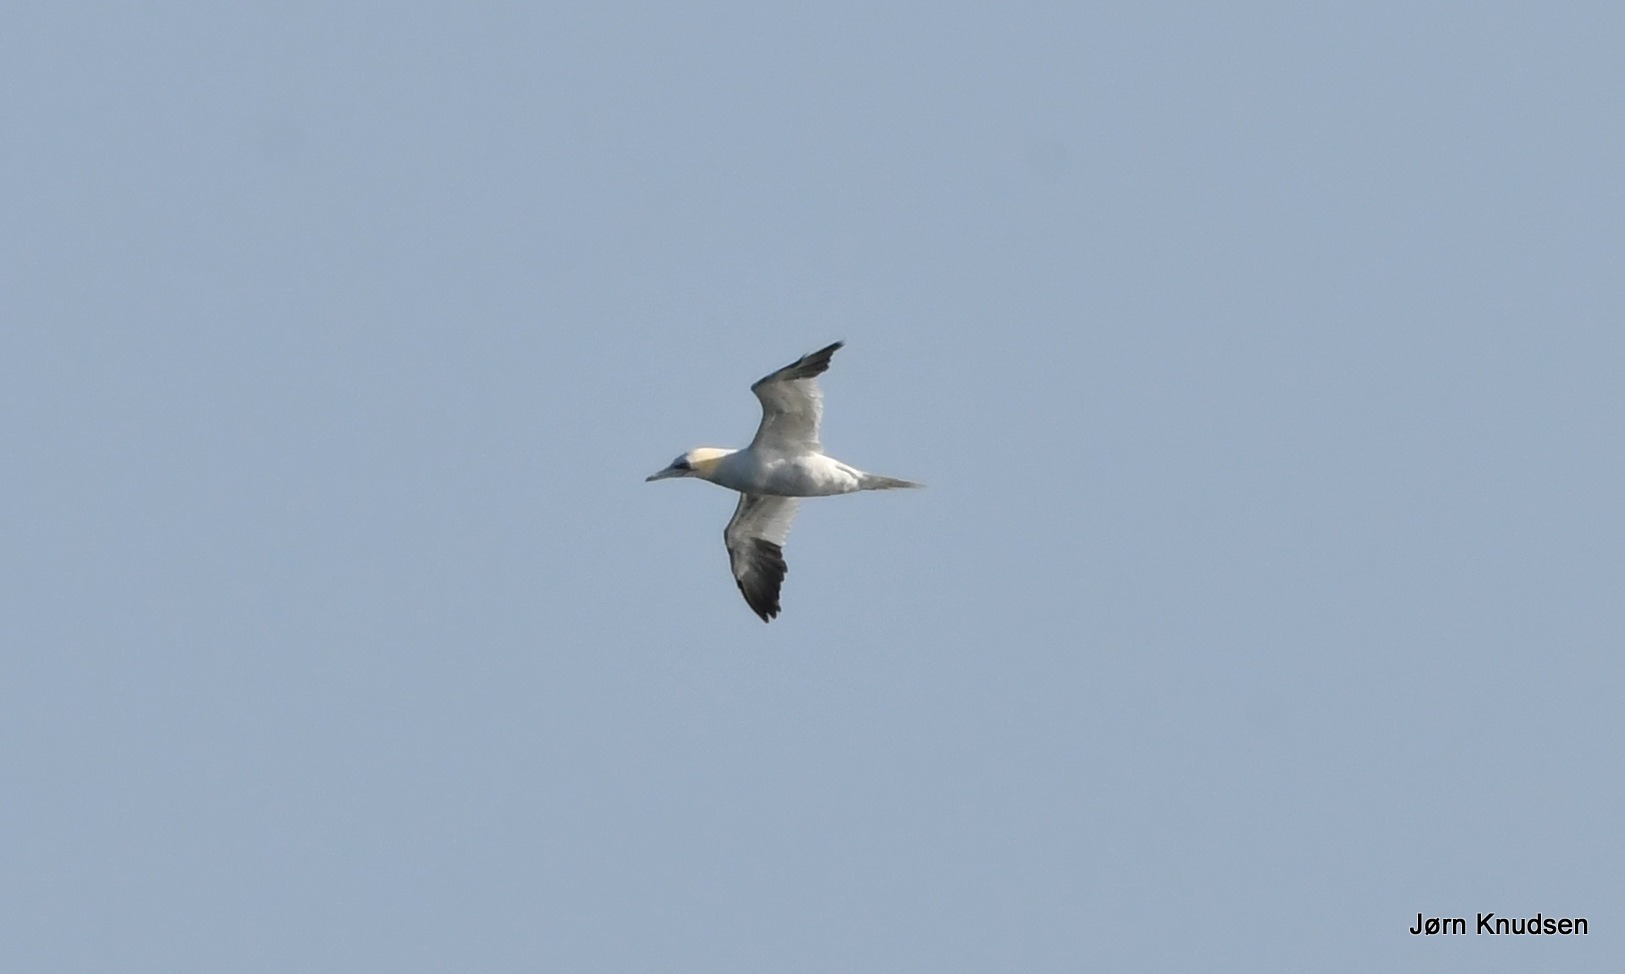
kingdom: Animalia
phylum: Chordata
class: Aves
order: Suliformes
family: Sulidae
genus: Morus
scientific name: Morus bassanus
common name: Sule
